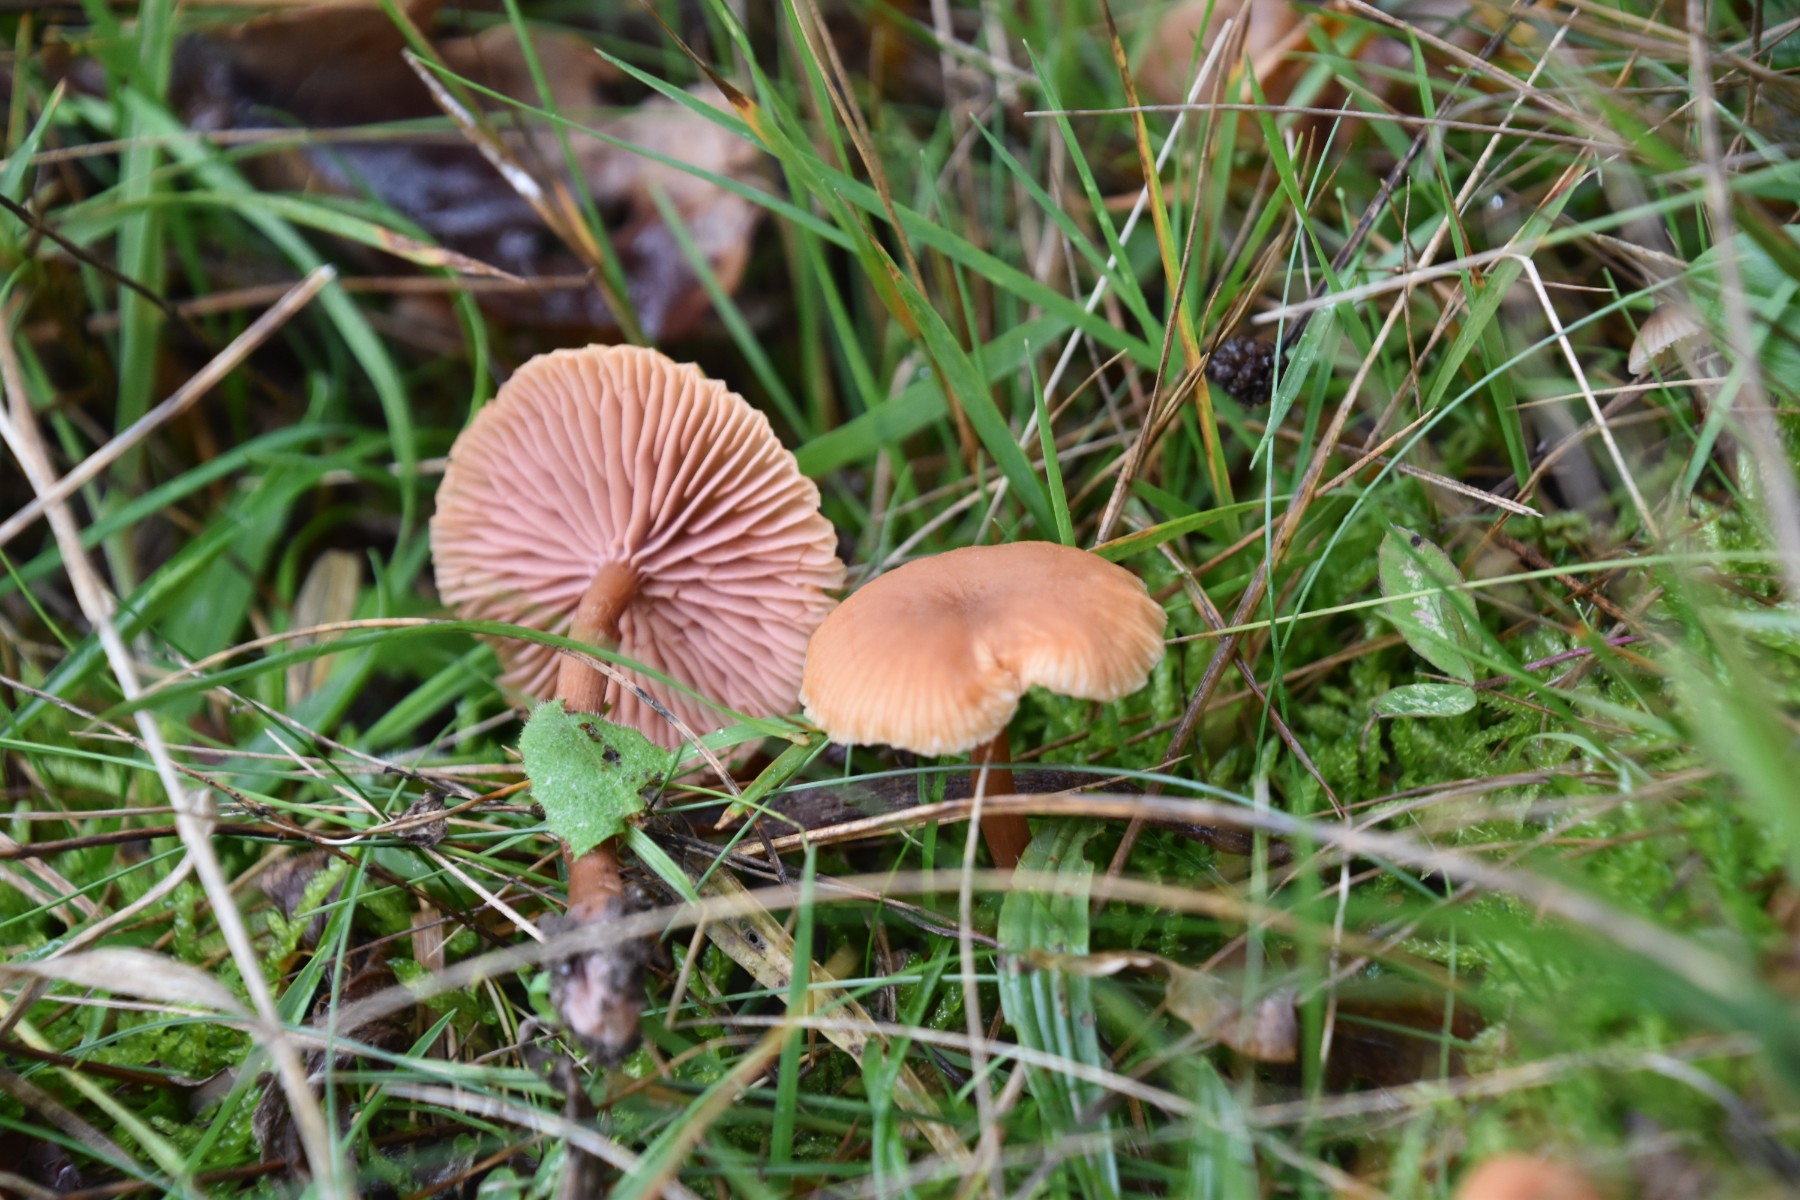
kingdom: Fungi
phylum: Basidiomycota
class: Agaricomycetes
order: Agaricales
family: Hydnangiaceae
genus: Laccaria
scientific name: Laccaria
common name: ametysthat
